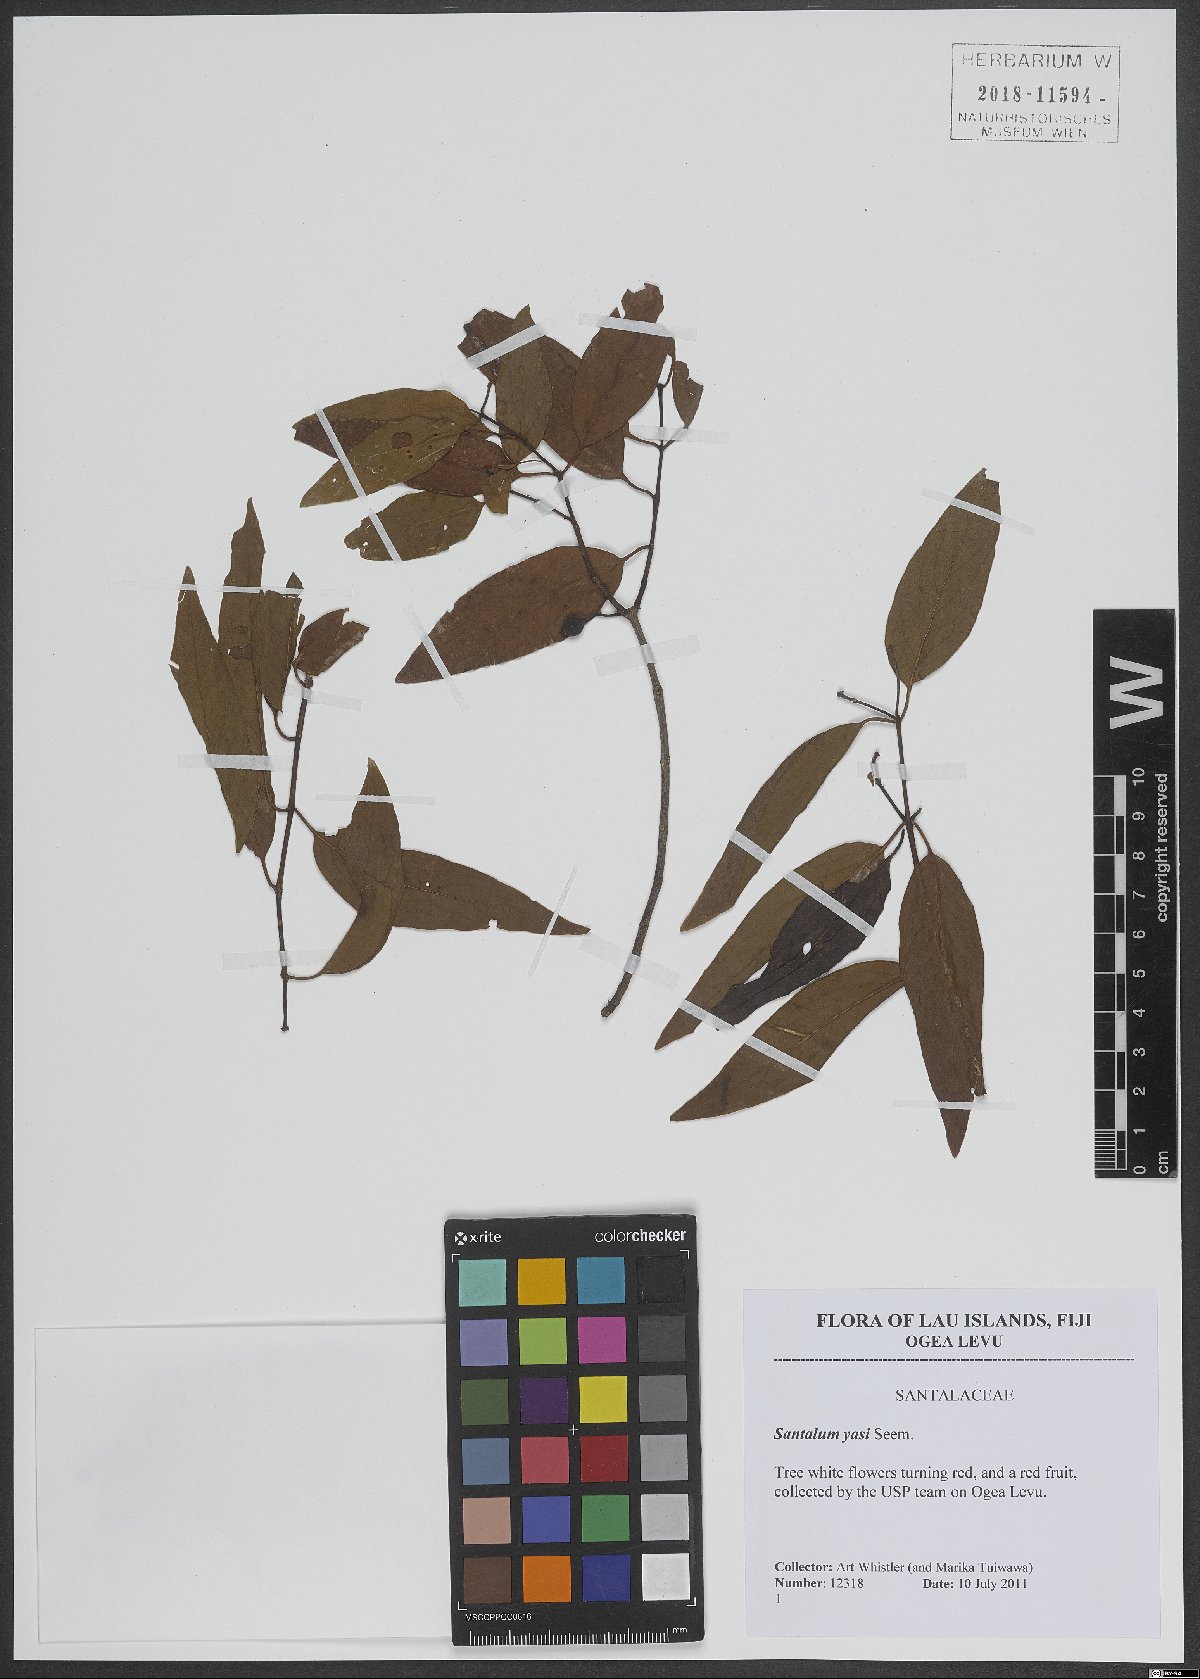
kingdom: Plantae
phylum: Tracheophyta
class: Magnoliopsida
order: Santalales
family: Santalaceae
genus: Santalum
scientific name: Santalum yasi
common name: Yasi
